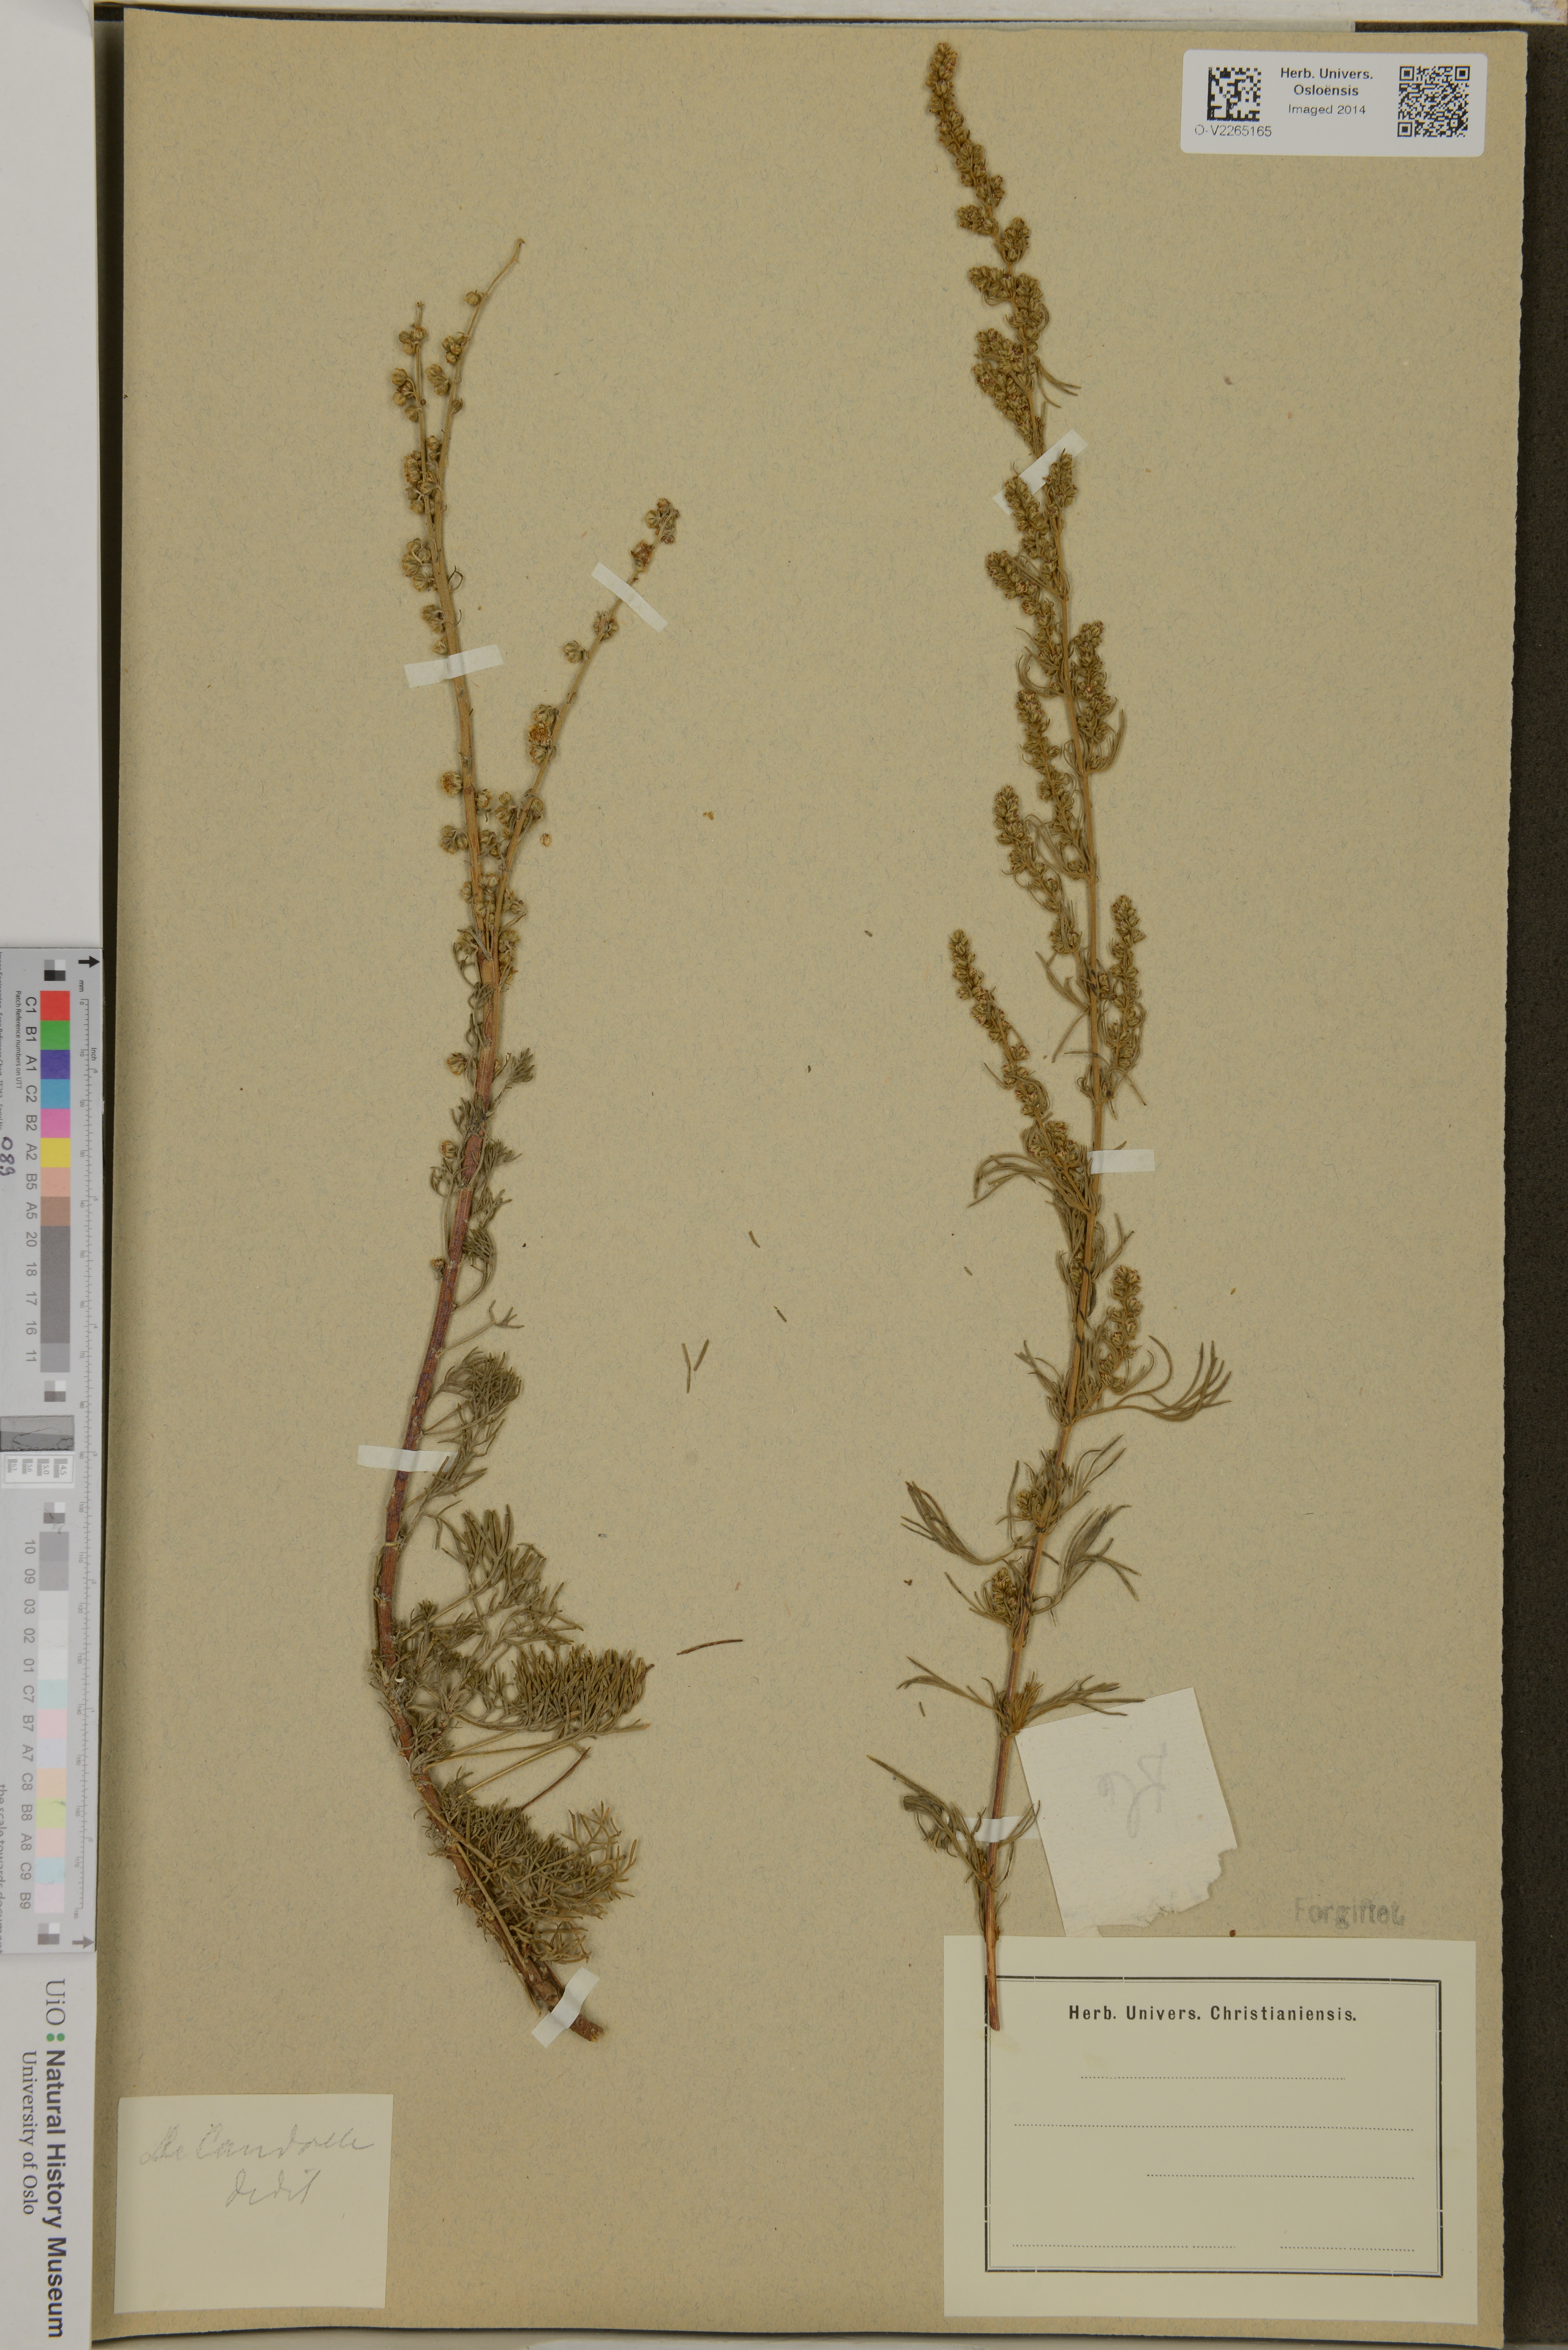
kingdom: Plantae
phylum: Tracheophyta
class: Magnoliopsida
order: Asterales
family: Asteraceae
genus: Artemisia
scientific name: Artemisia
